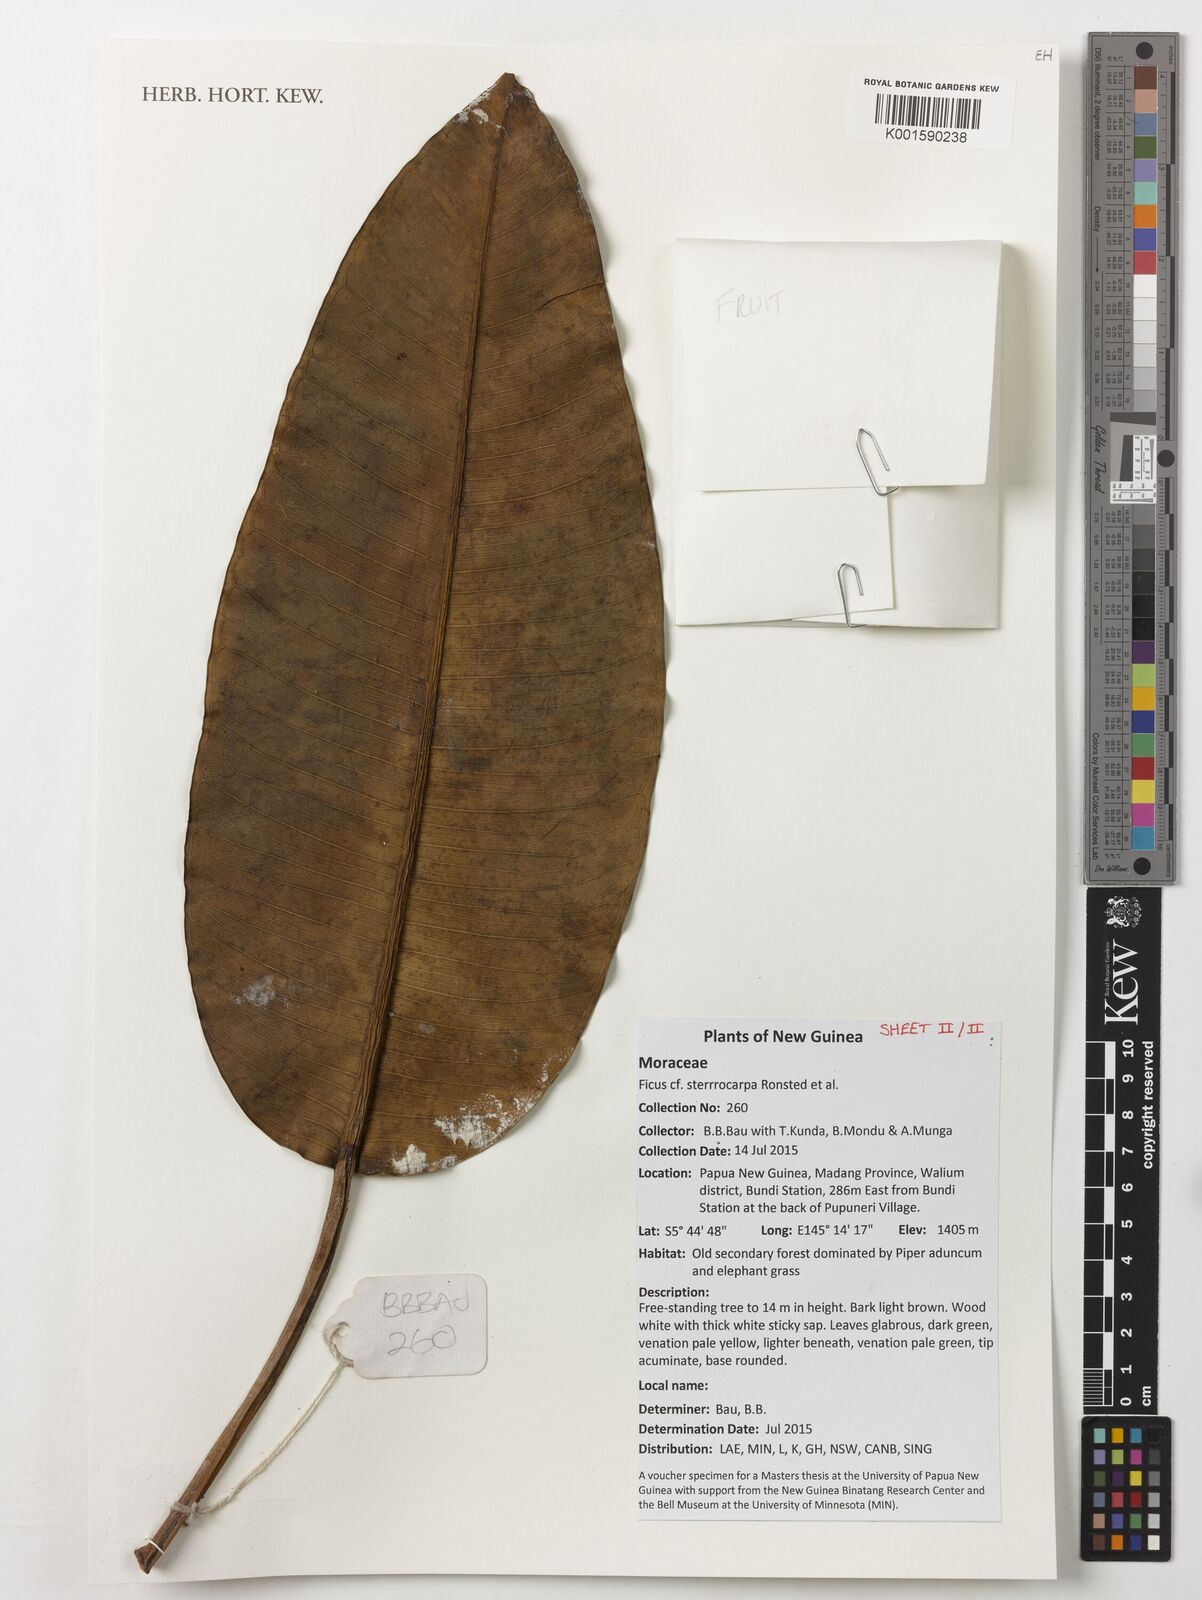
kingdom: Plantae
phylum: Tracheophyta
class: Magnoliopsida
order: Rosales
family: Moraceae
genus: Ficus
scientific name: Ficus hesperidiiformis
